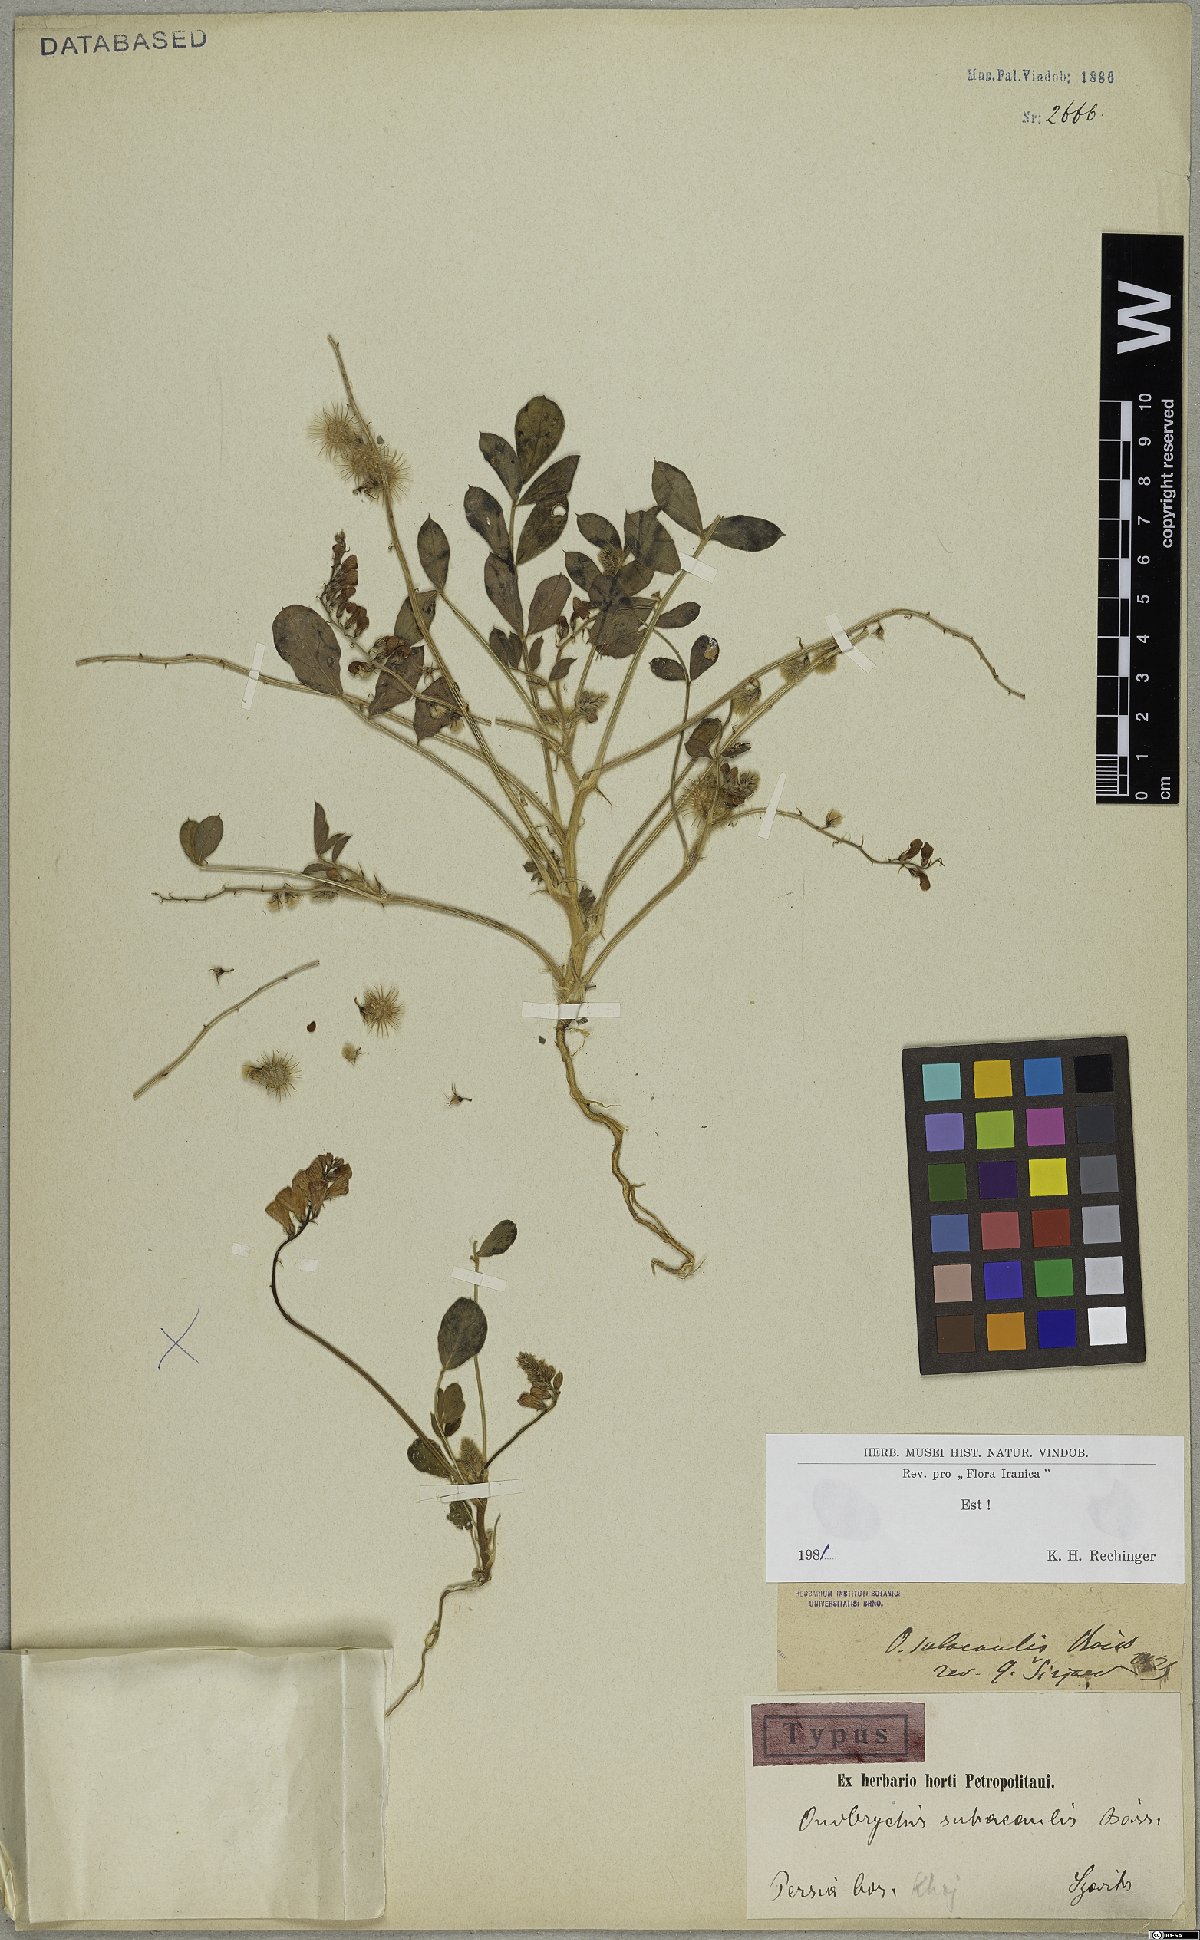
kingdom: Plantae
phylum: Tracheophyta
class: Magnoliopsida
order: Fabales
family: Fabaceae
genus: Onobrychis
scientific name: Onobrychis subacaulis
